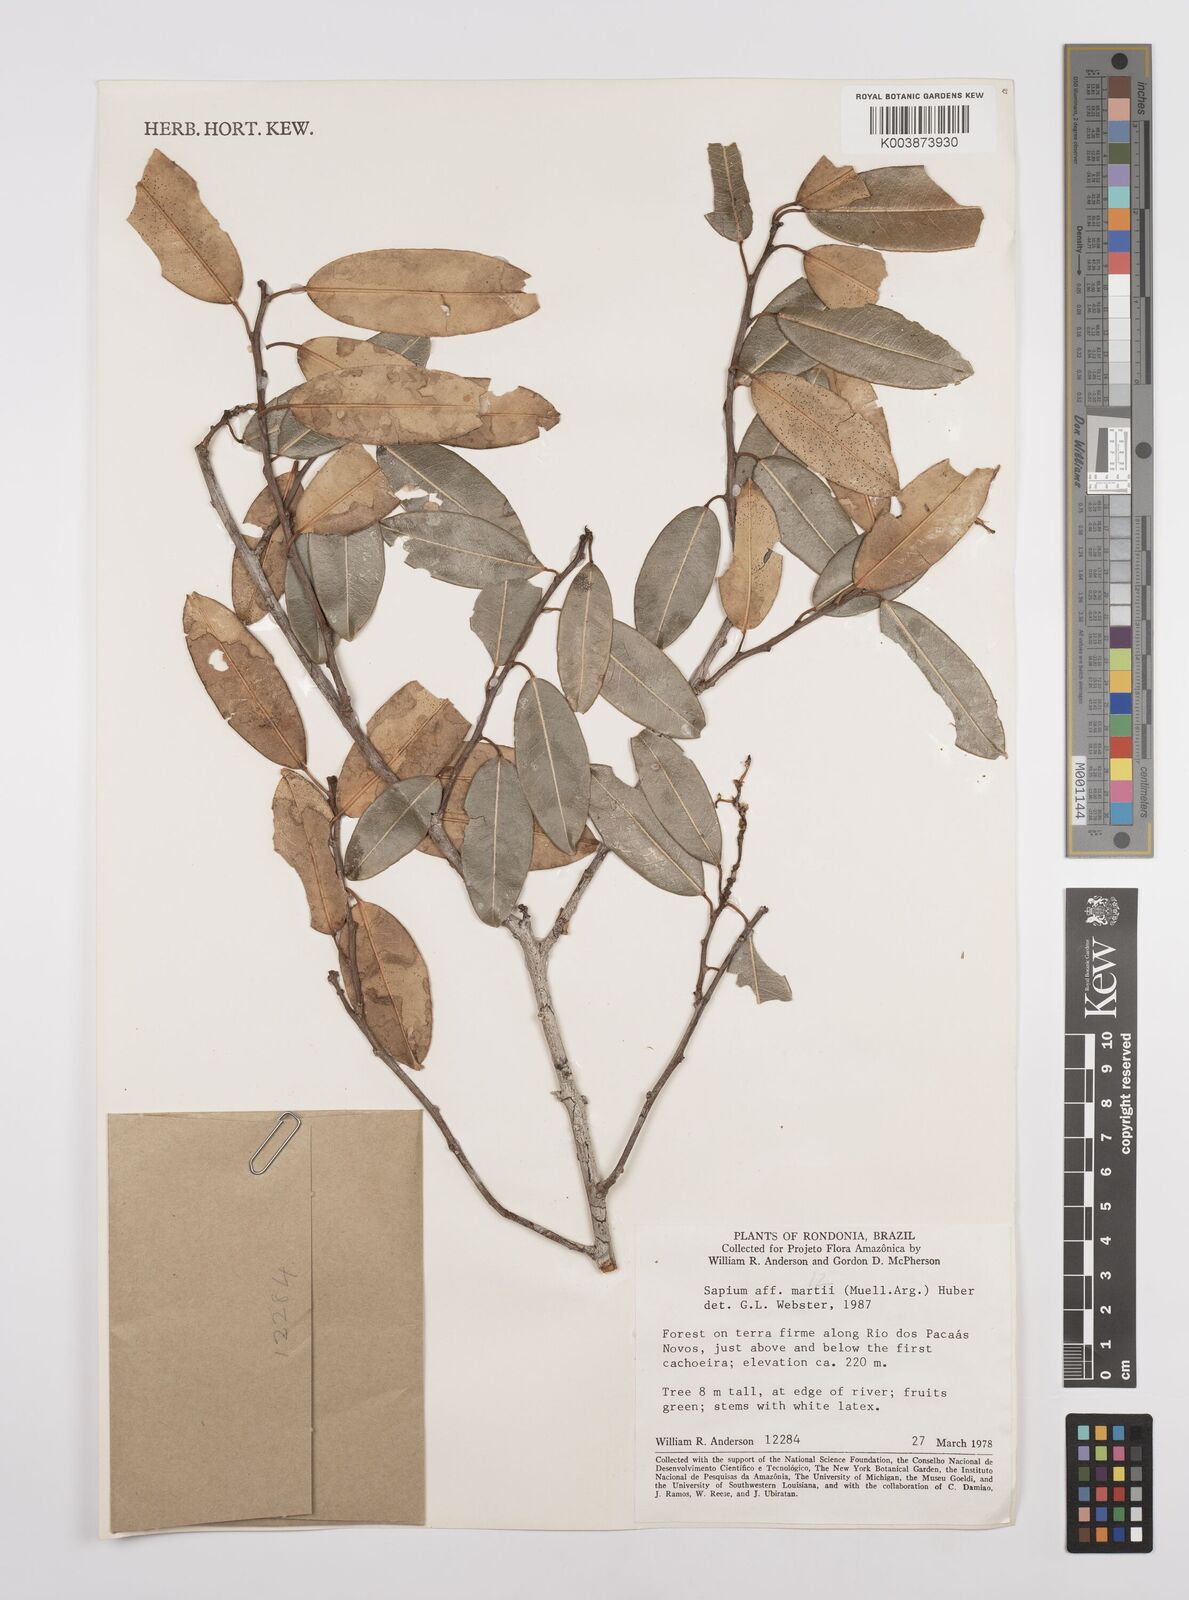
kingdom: Plantae
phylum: Tracheophyta
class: Magnoliopsida
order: Malpighiales
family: Euphorbiaceae
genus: Sapium
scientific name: Sapium obovatum
